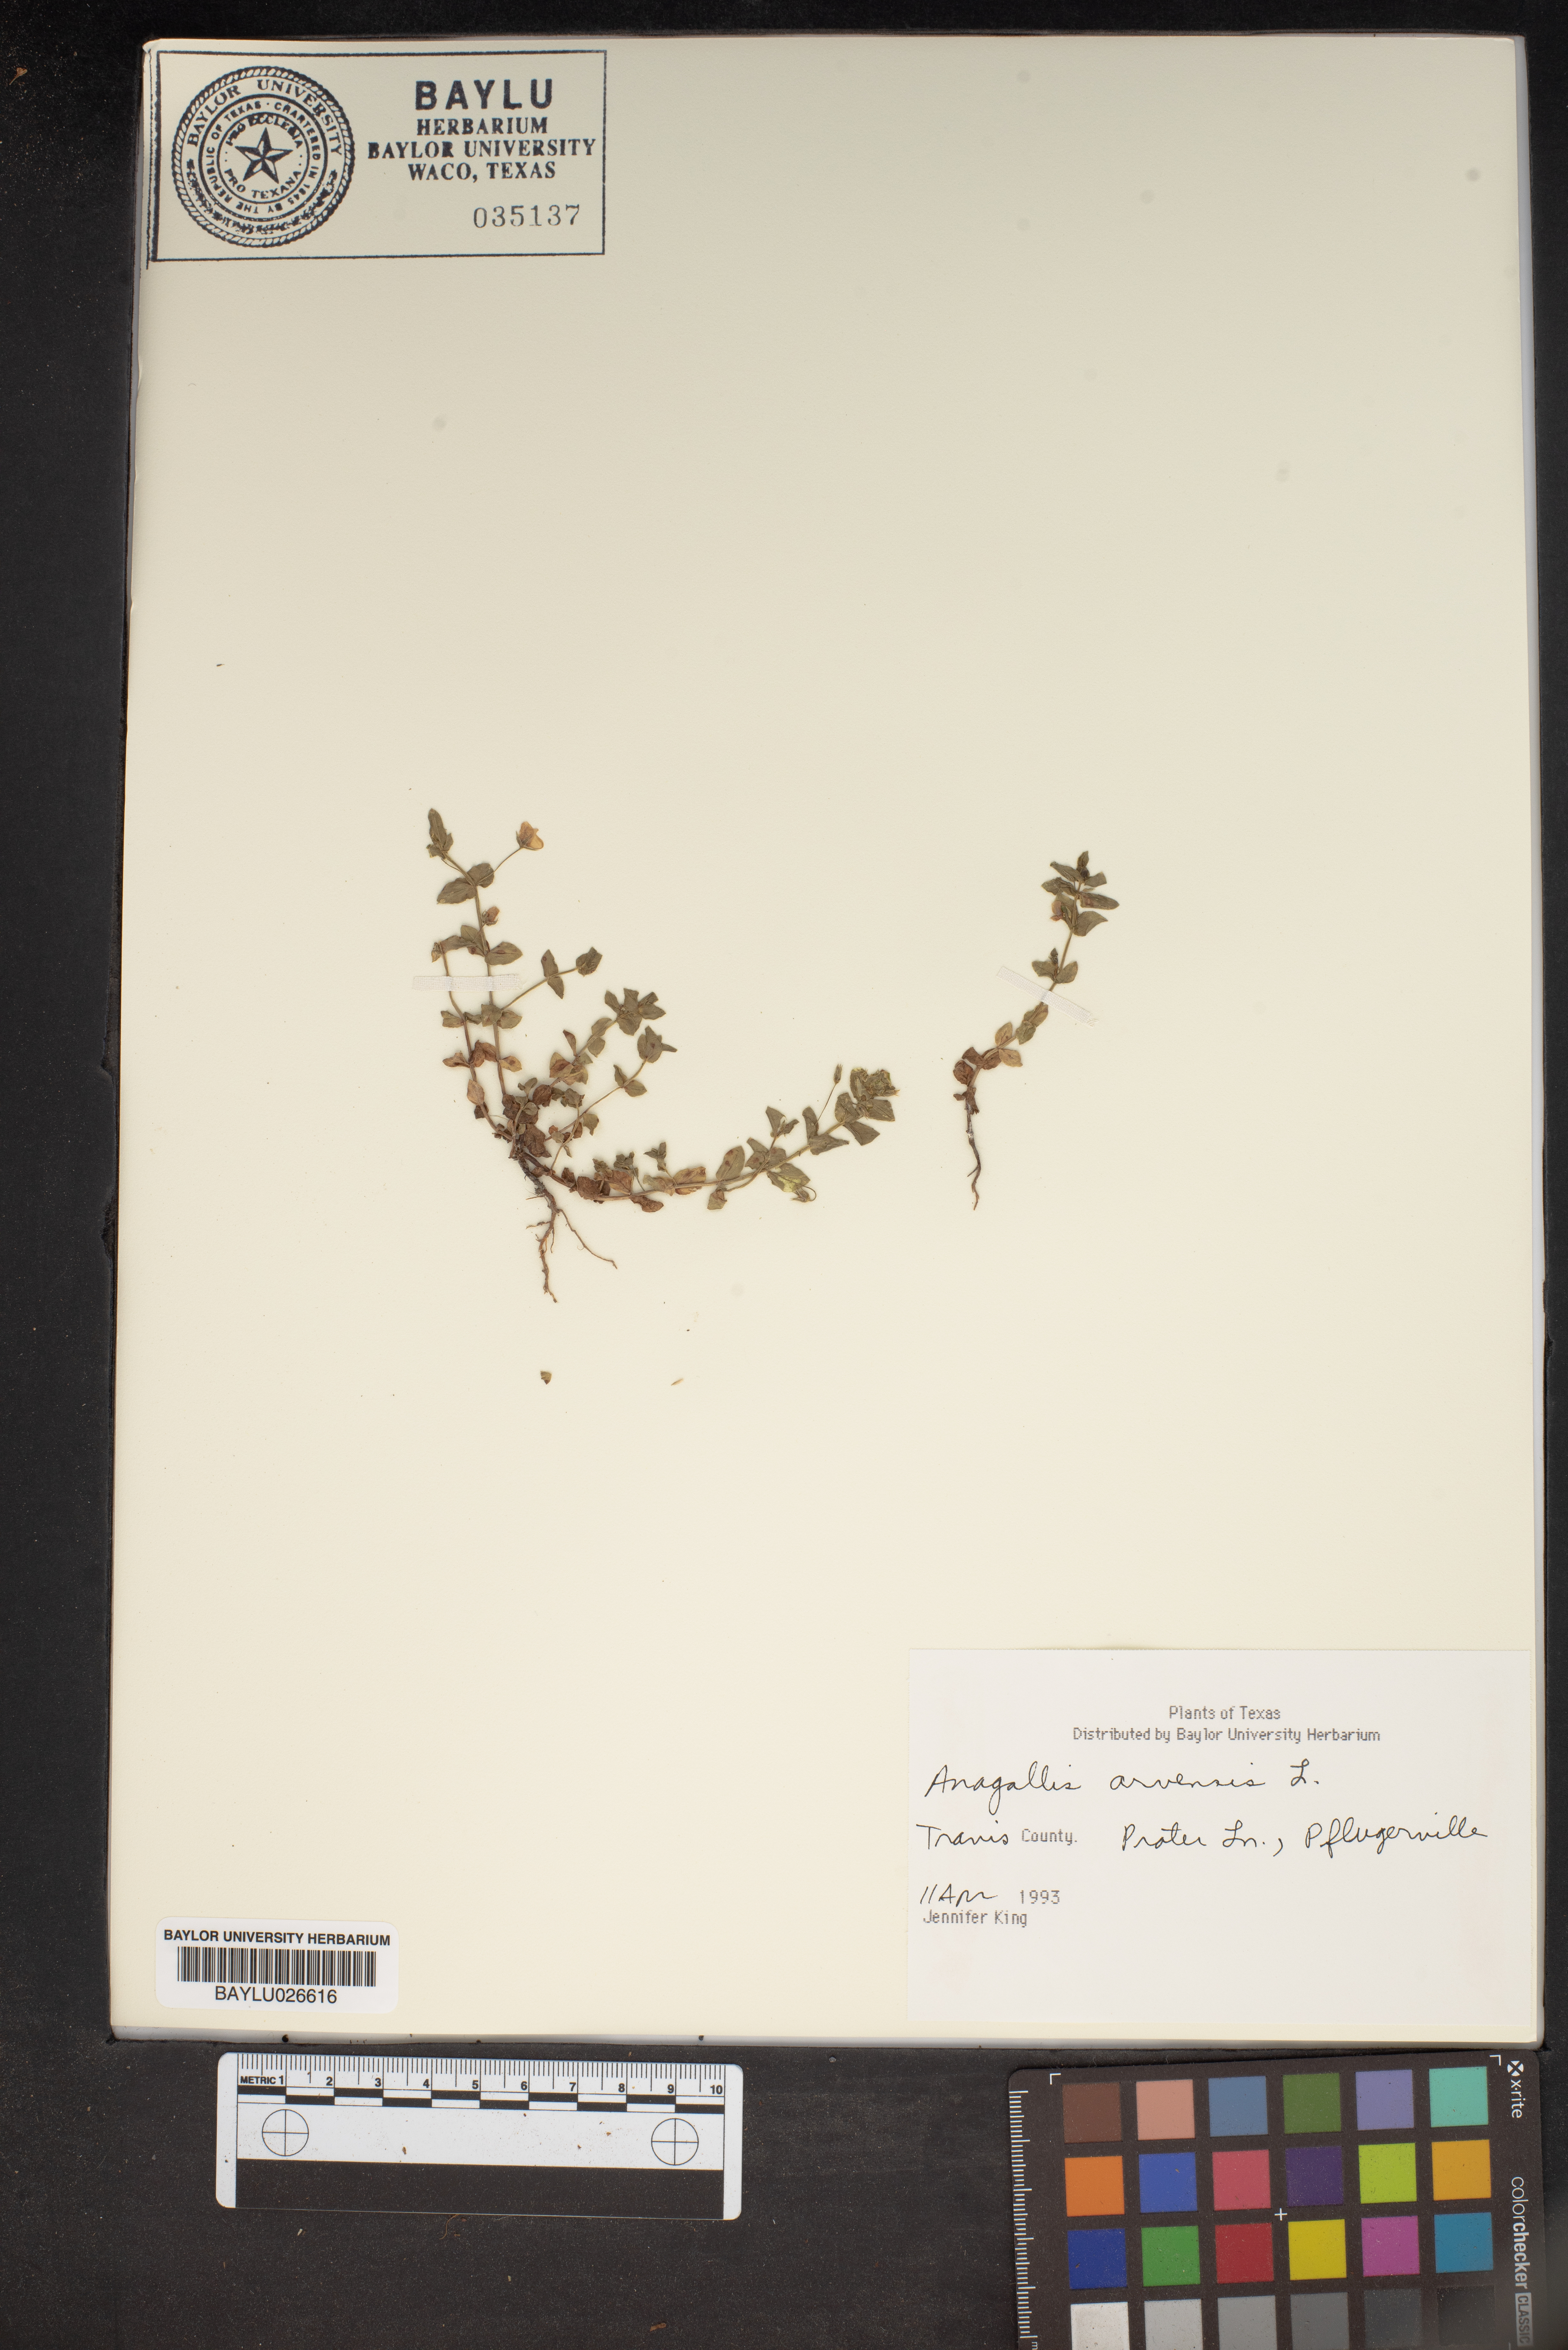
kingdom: Plantae
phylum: Tracheophyta
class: Magnoliopsida
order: Ericales
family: Primulaceae
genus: Lysimachia
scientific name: Lysimachia arvensis
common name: Scarlet pimpernel
